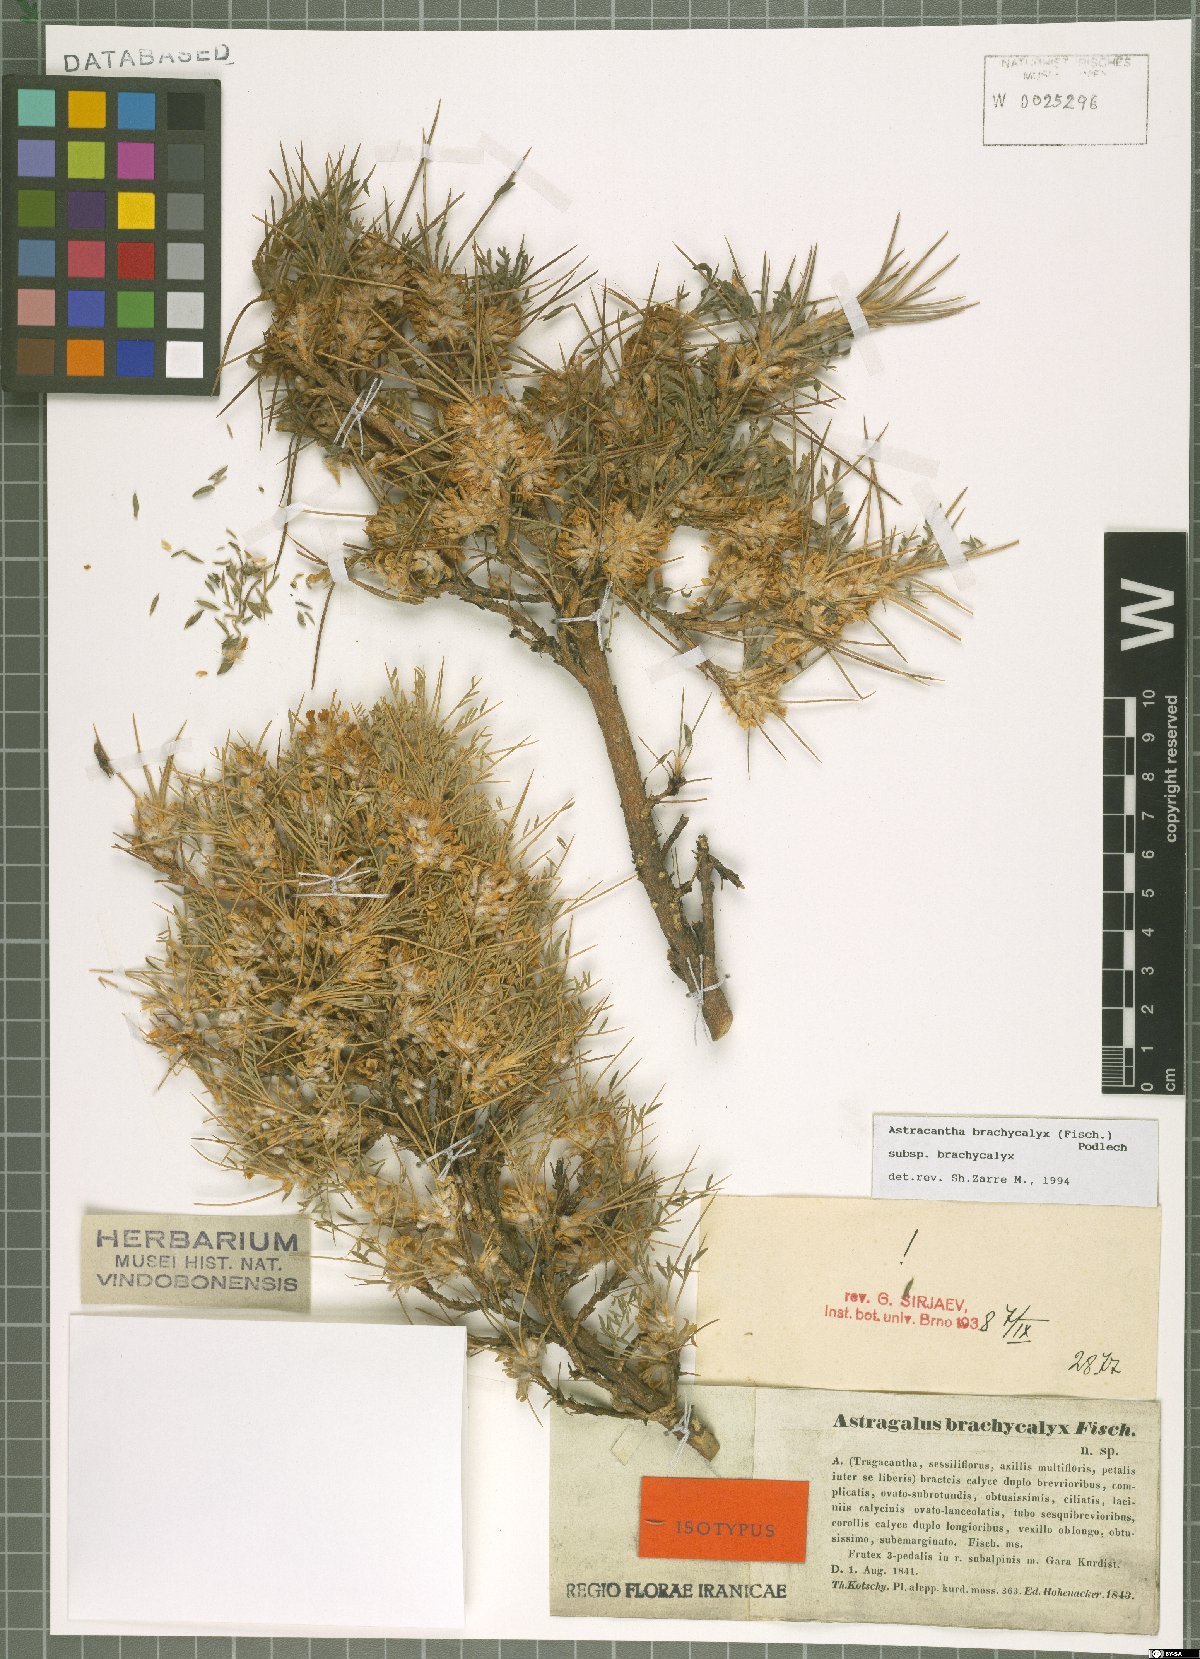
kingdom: Plantae
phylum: Tracheophyta
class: Magnoliopsida
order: Fabales
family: Fabaceae
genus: Astragalus
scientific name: Astragalus brachycalyx
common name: Persian manna
